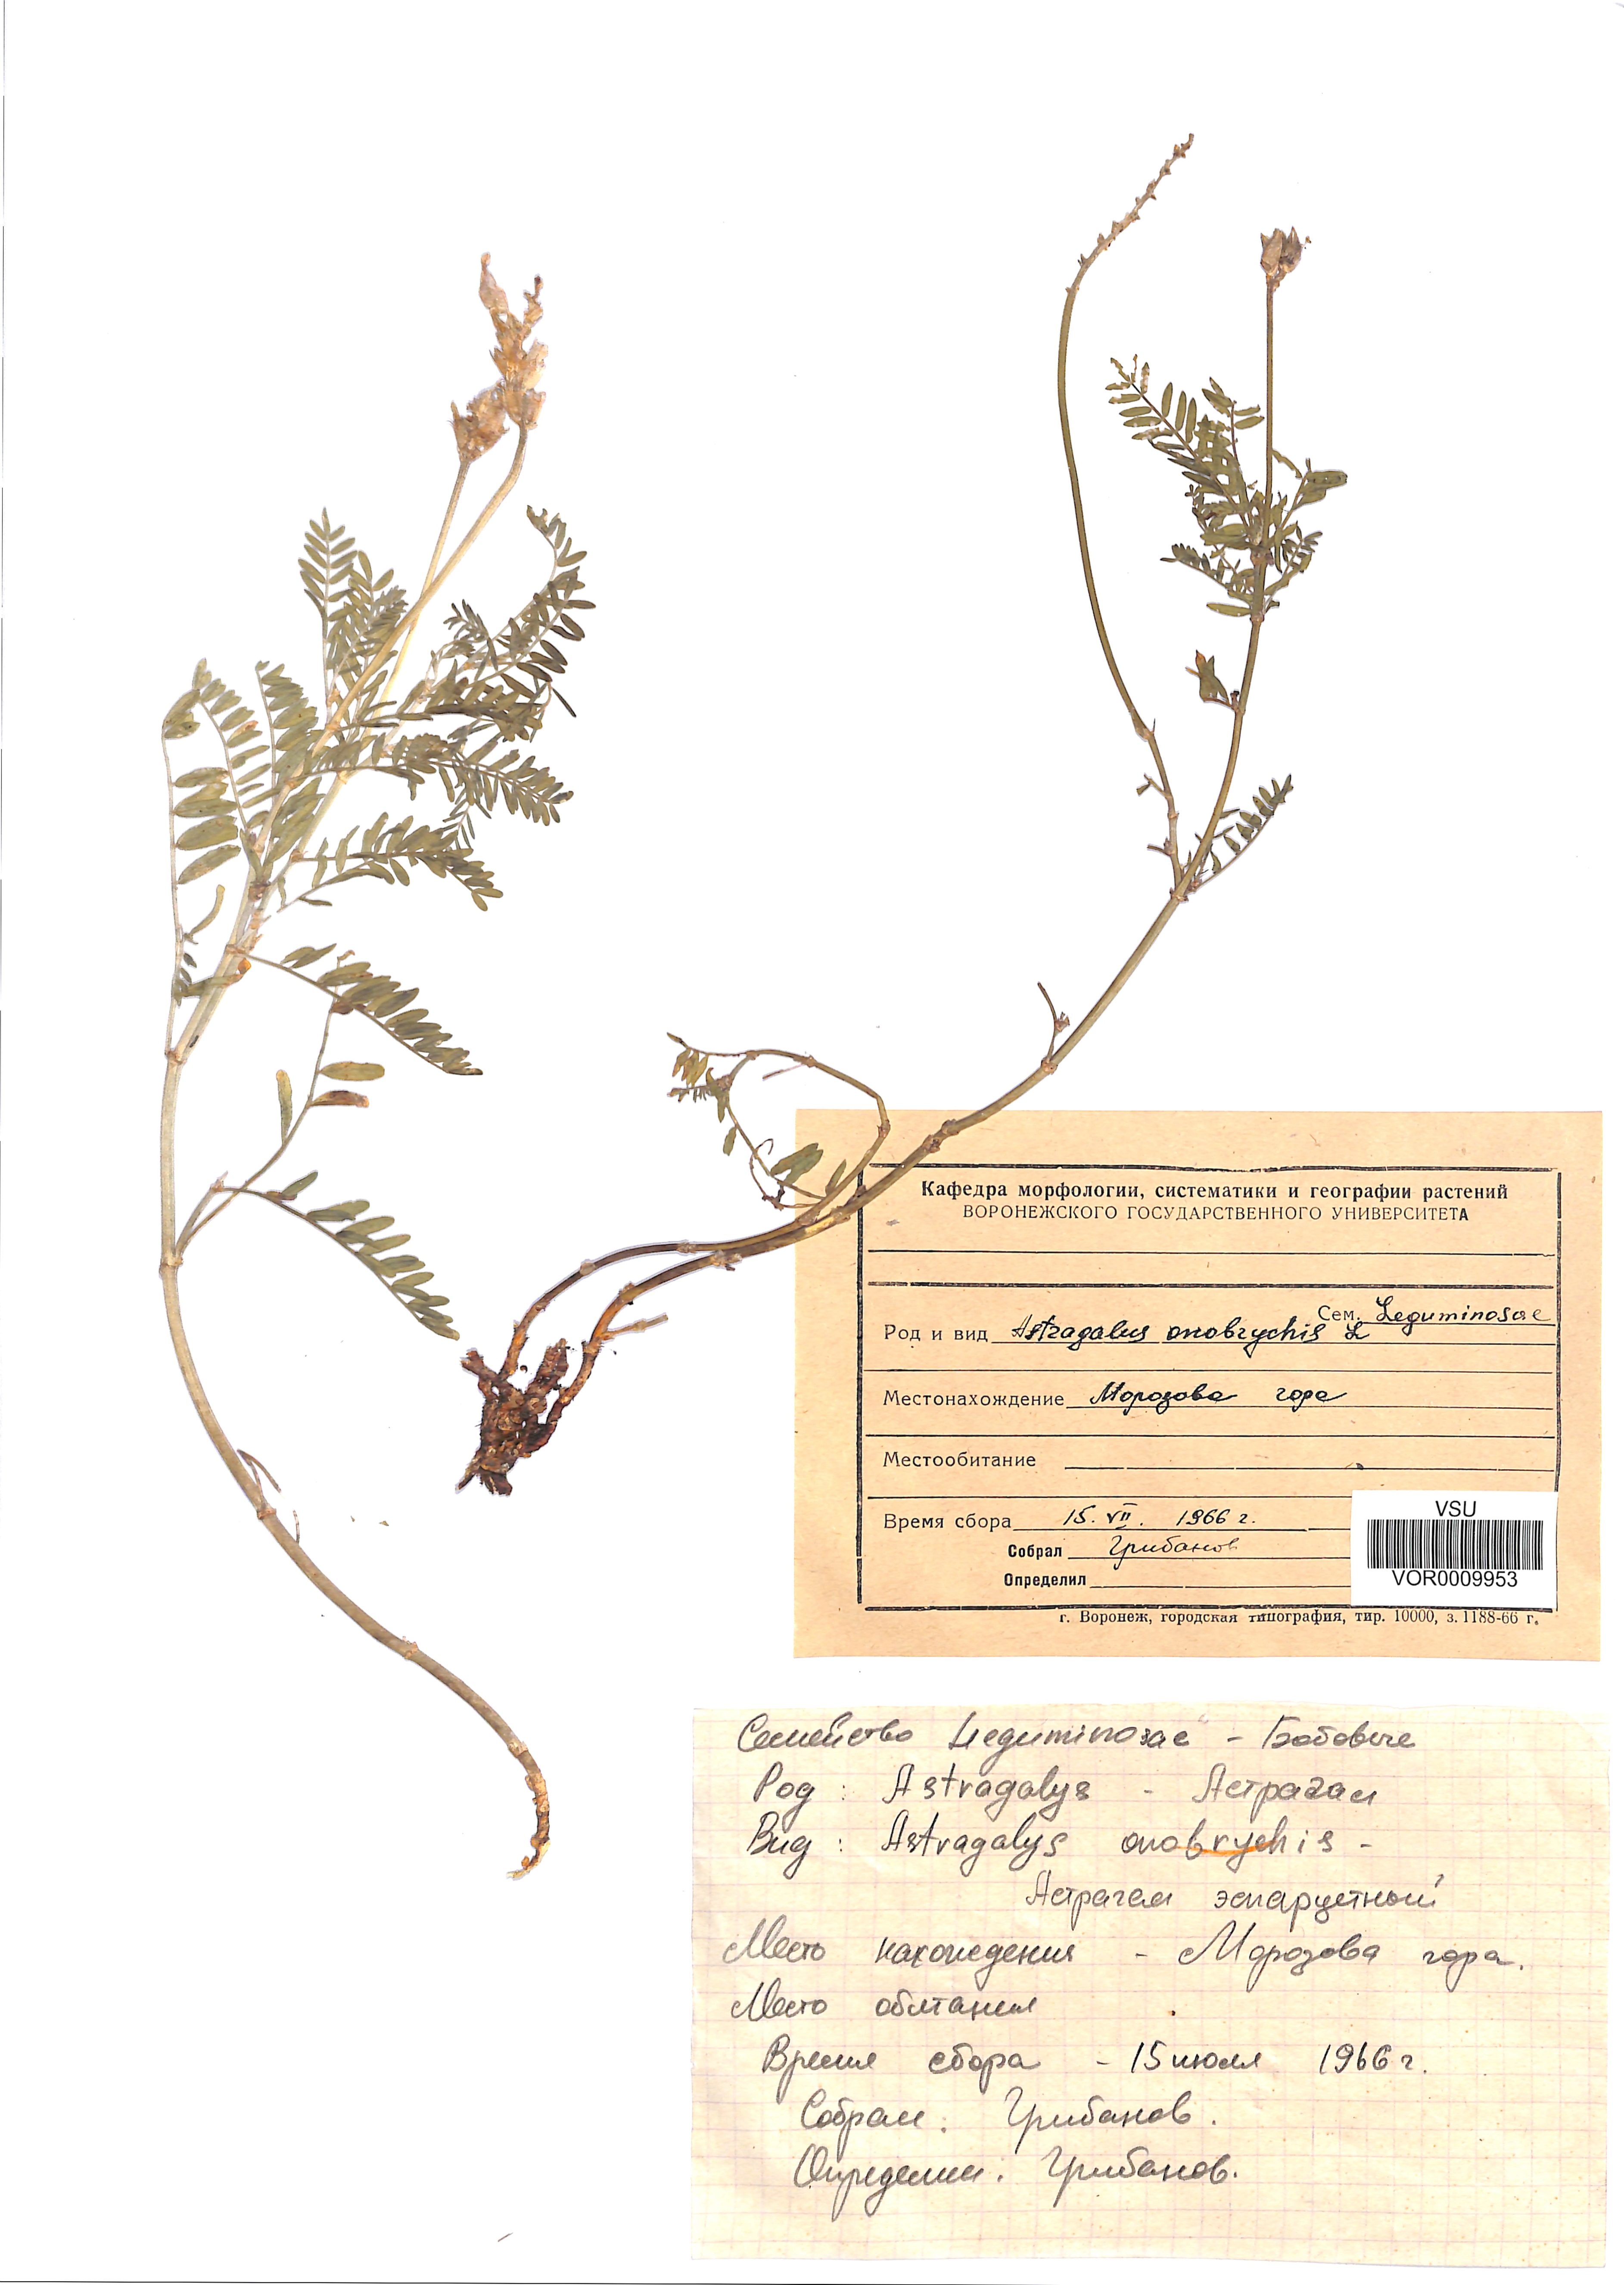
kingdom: Plantae
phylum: Tracheophyta
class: Magnoliopsida
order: Fabales
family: Fabaceae
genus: Astragalus
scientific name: Astragalus onobrychis
